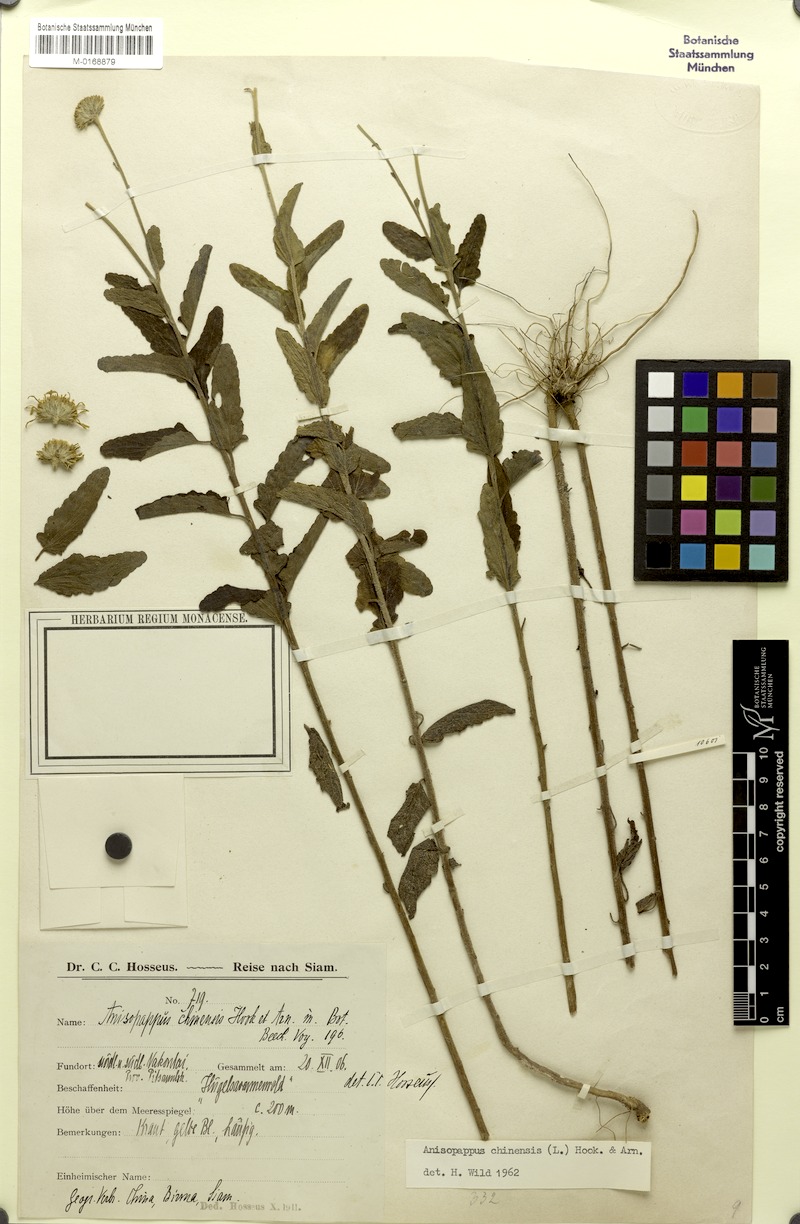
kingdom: Plantae
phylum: Tracheophyta
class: Magnoliopsida
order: Asterales
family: Asteraceae
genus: Anisopappus
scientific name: Anisopappus chinensis
